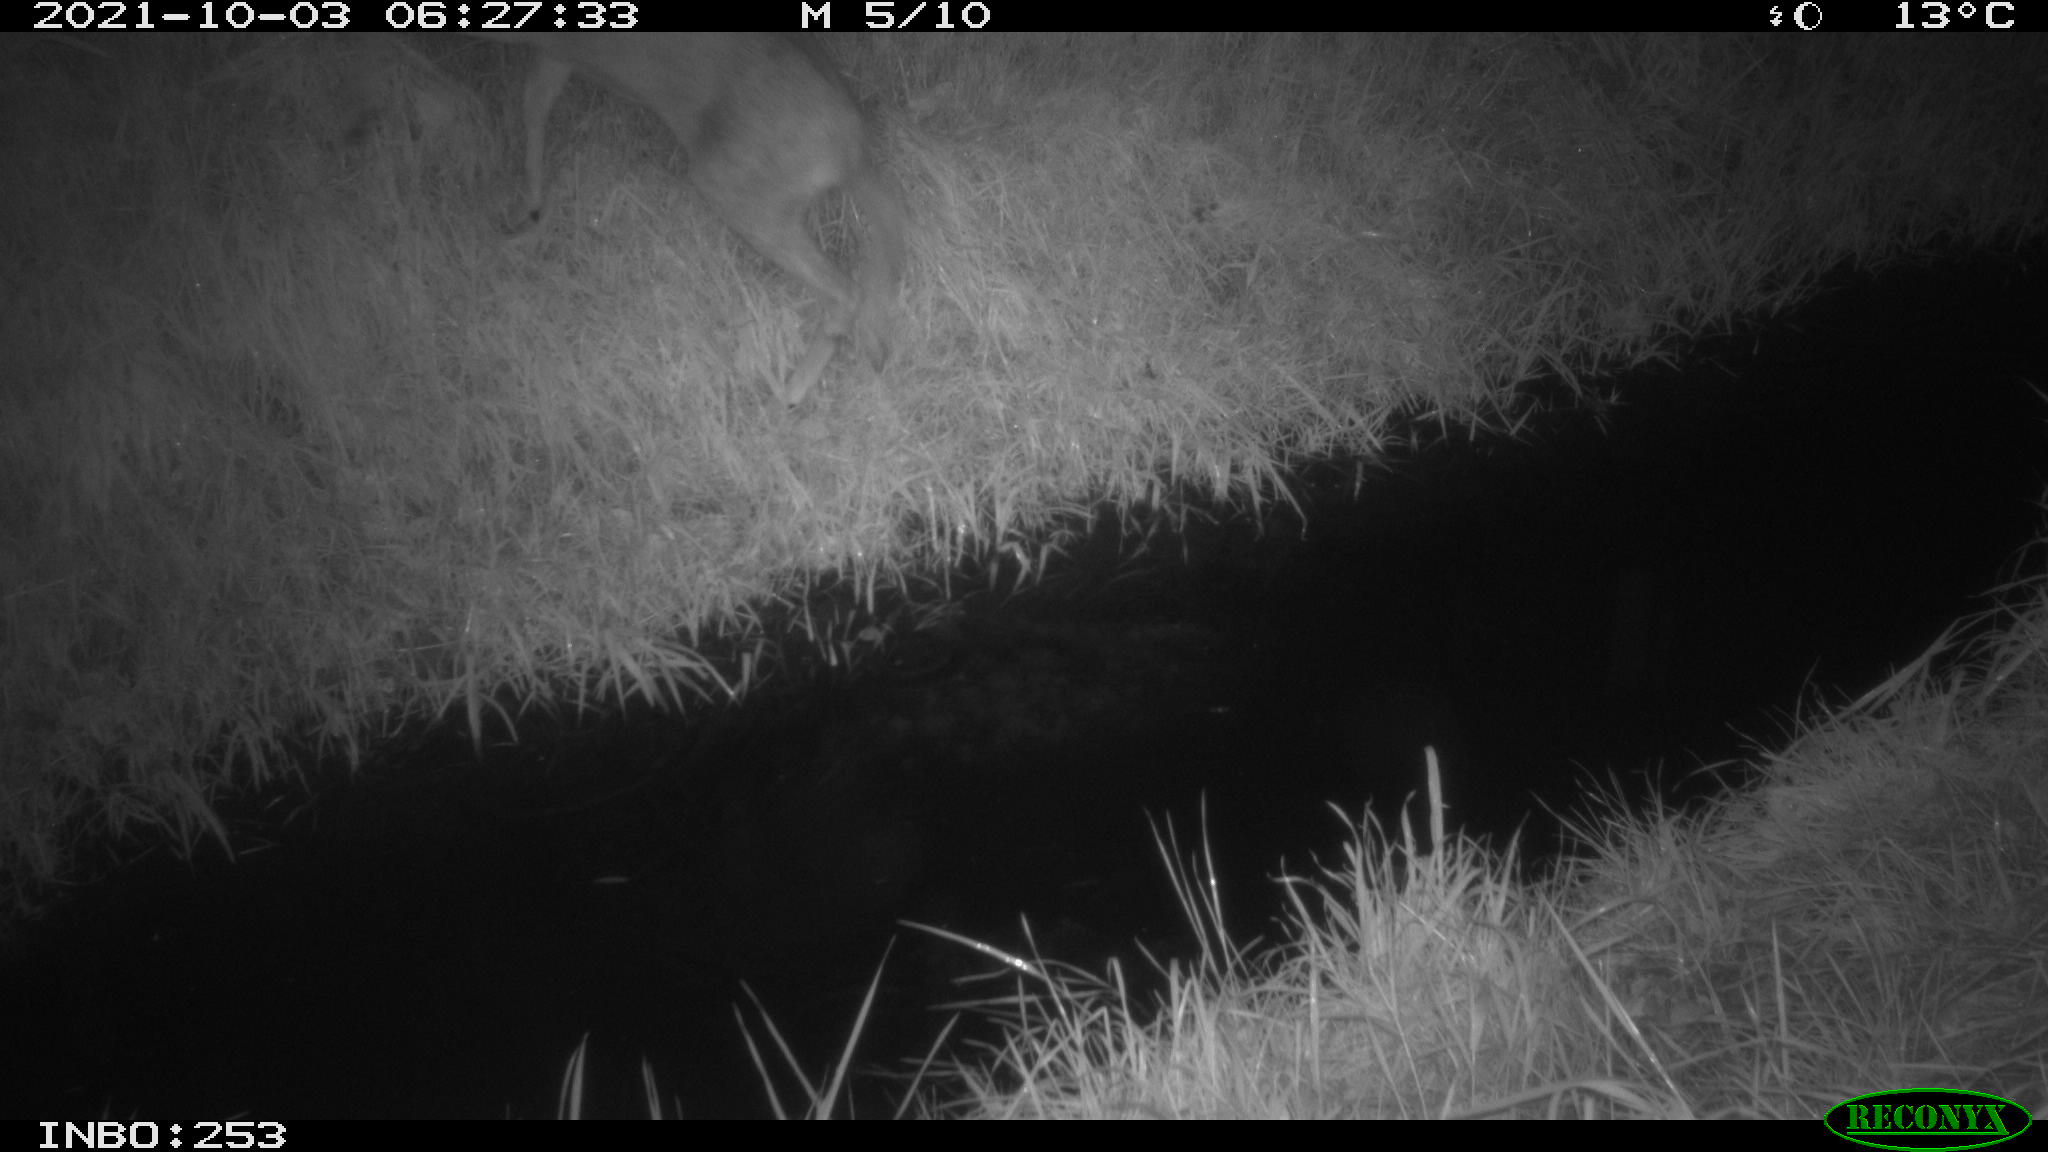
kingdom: Animalia
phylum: Chordata
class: Mammalia
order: Artiodactyla
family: Cervidae
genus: Capreolus
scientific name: Capreolus capreolus
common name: Western roe deer
